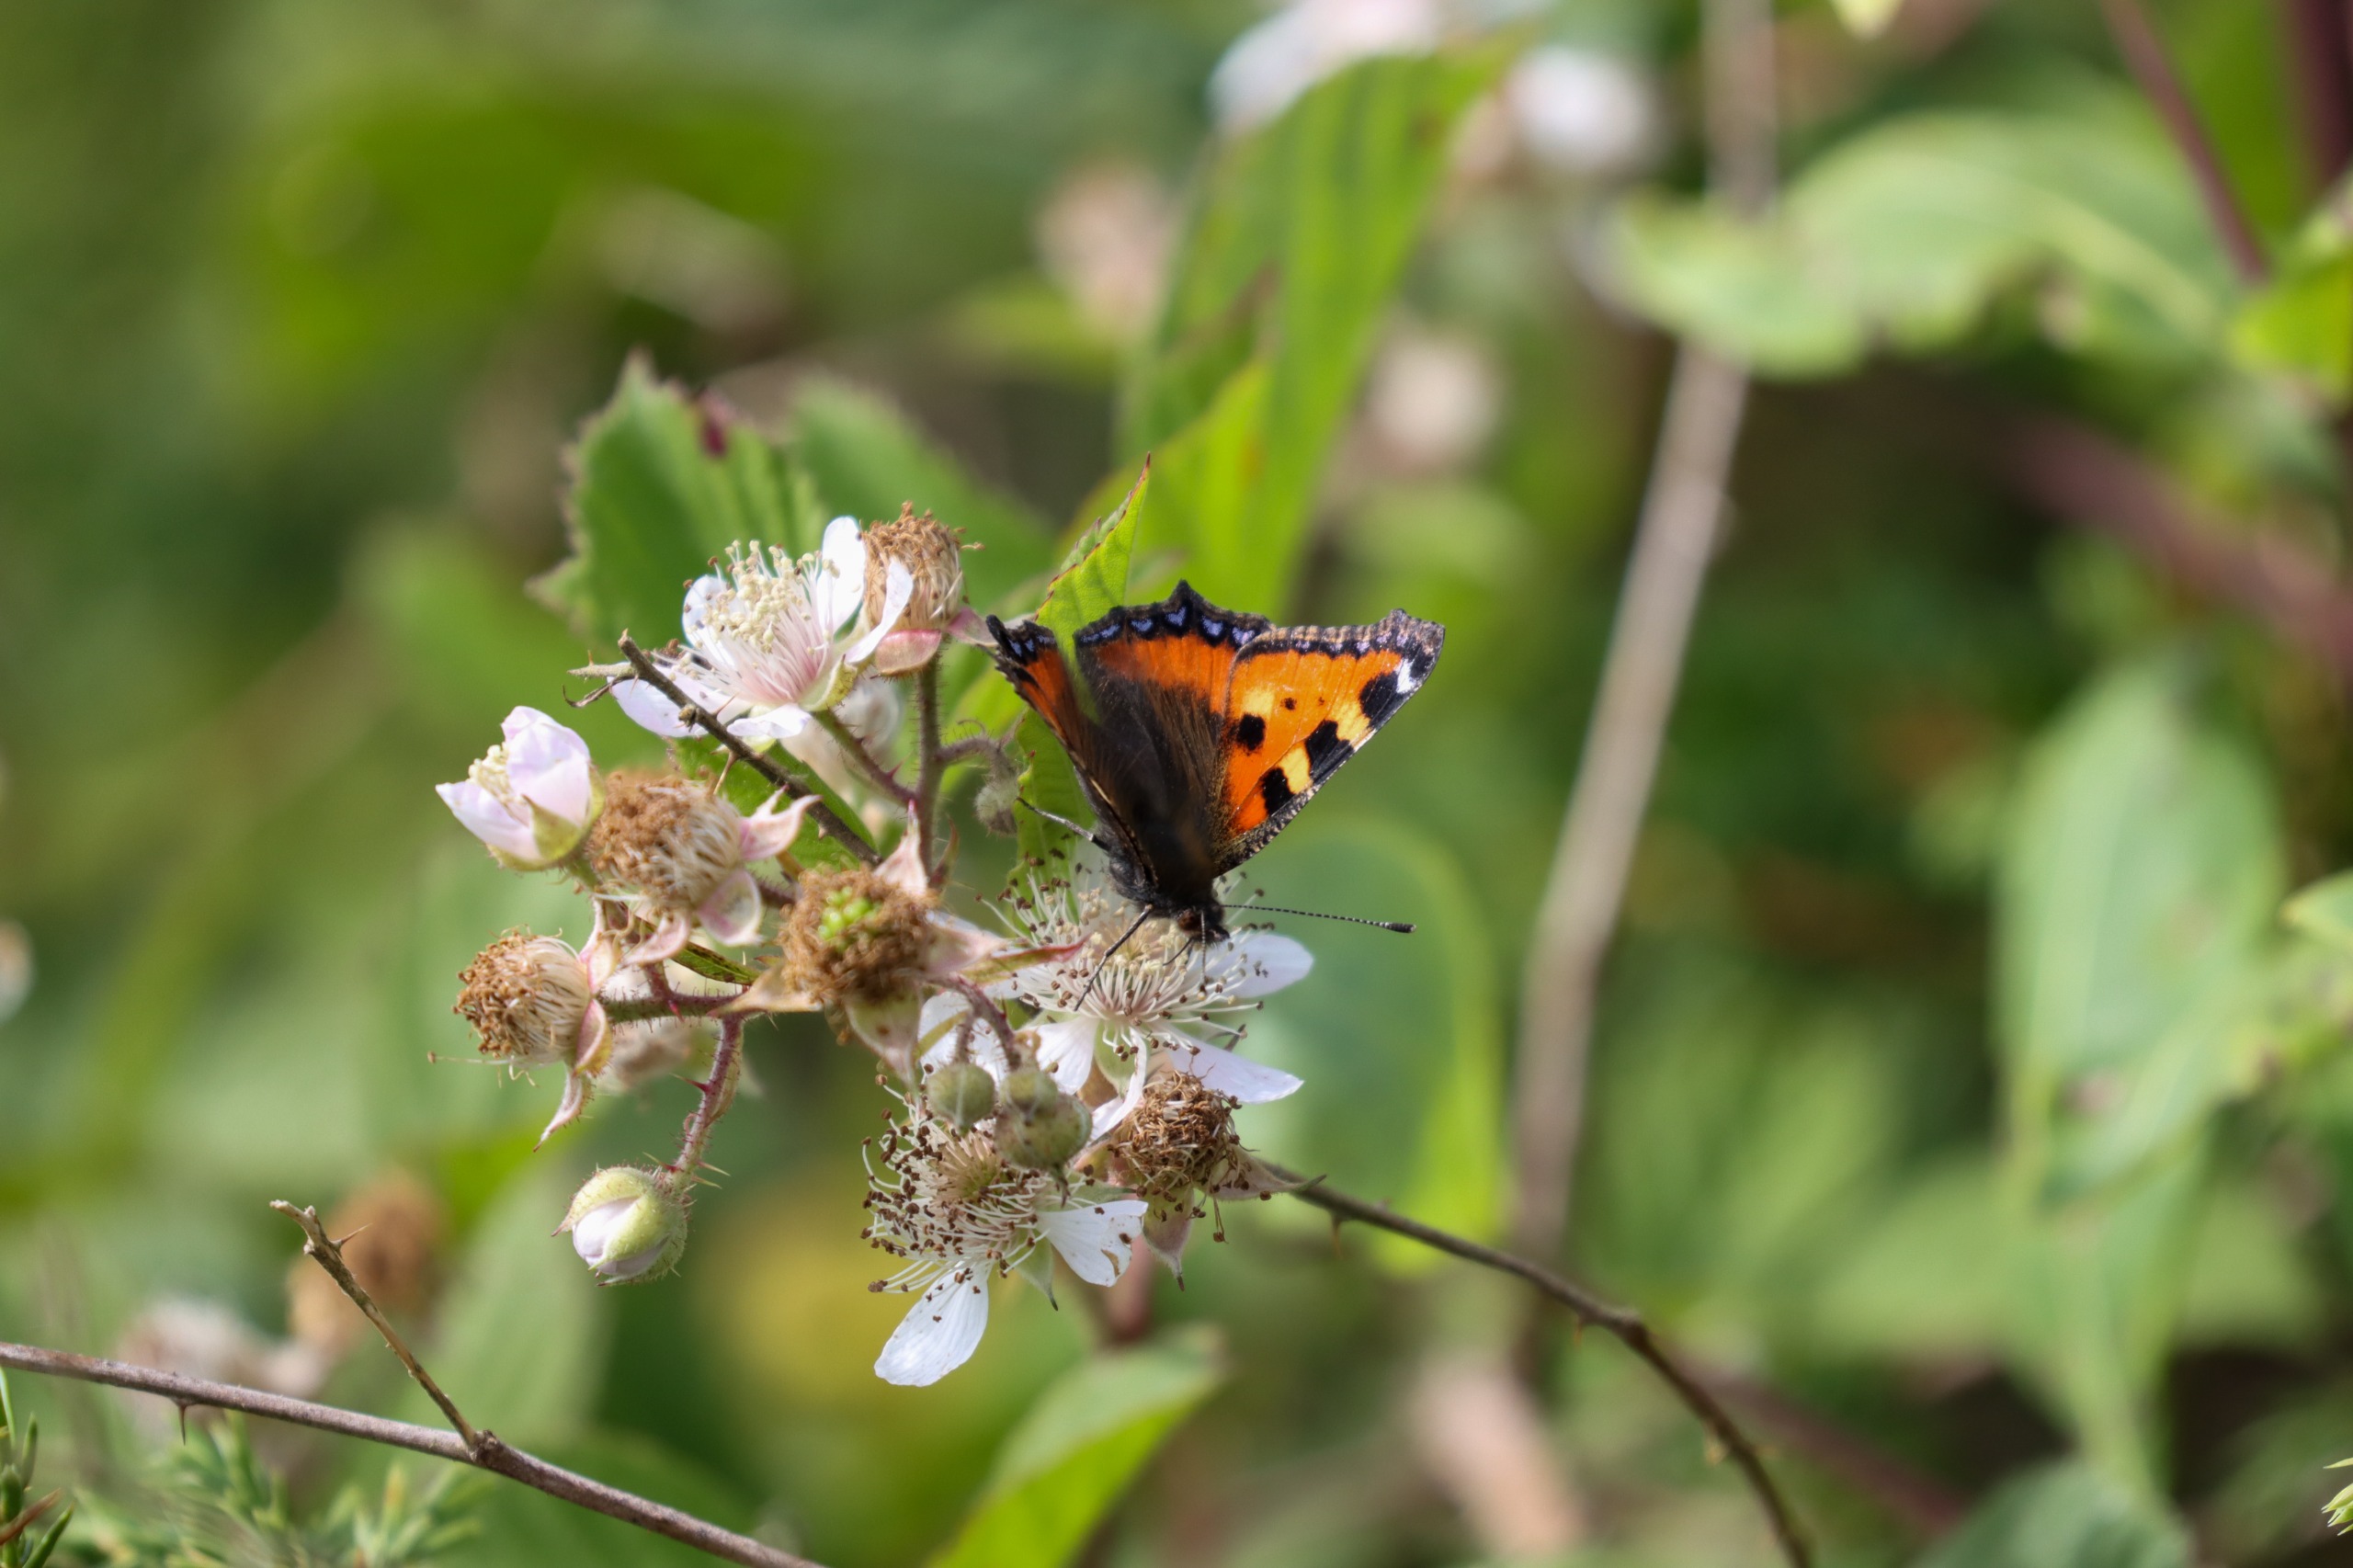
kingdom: Animalia
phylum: Arthropoda
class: Insecta
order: Lepidoptera
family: Nymphalidae
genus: Aglais
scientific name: Aglais urticae
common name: Nældens takvinge
